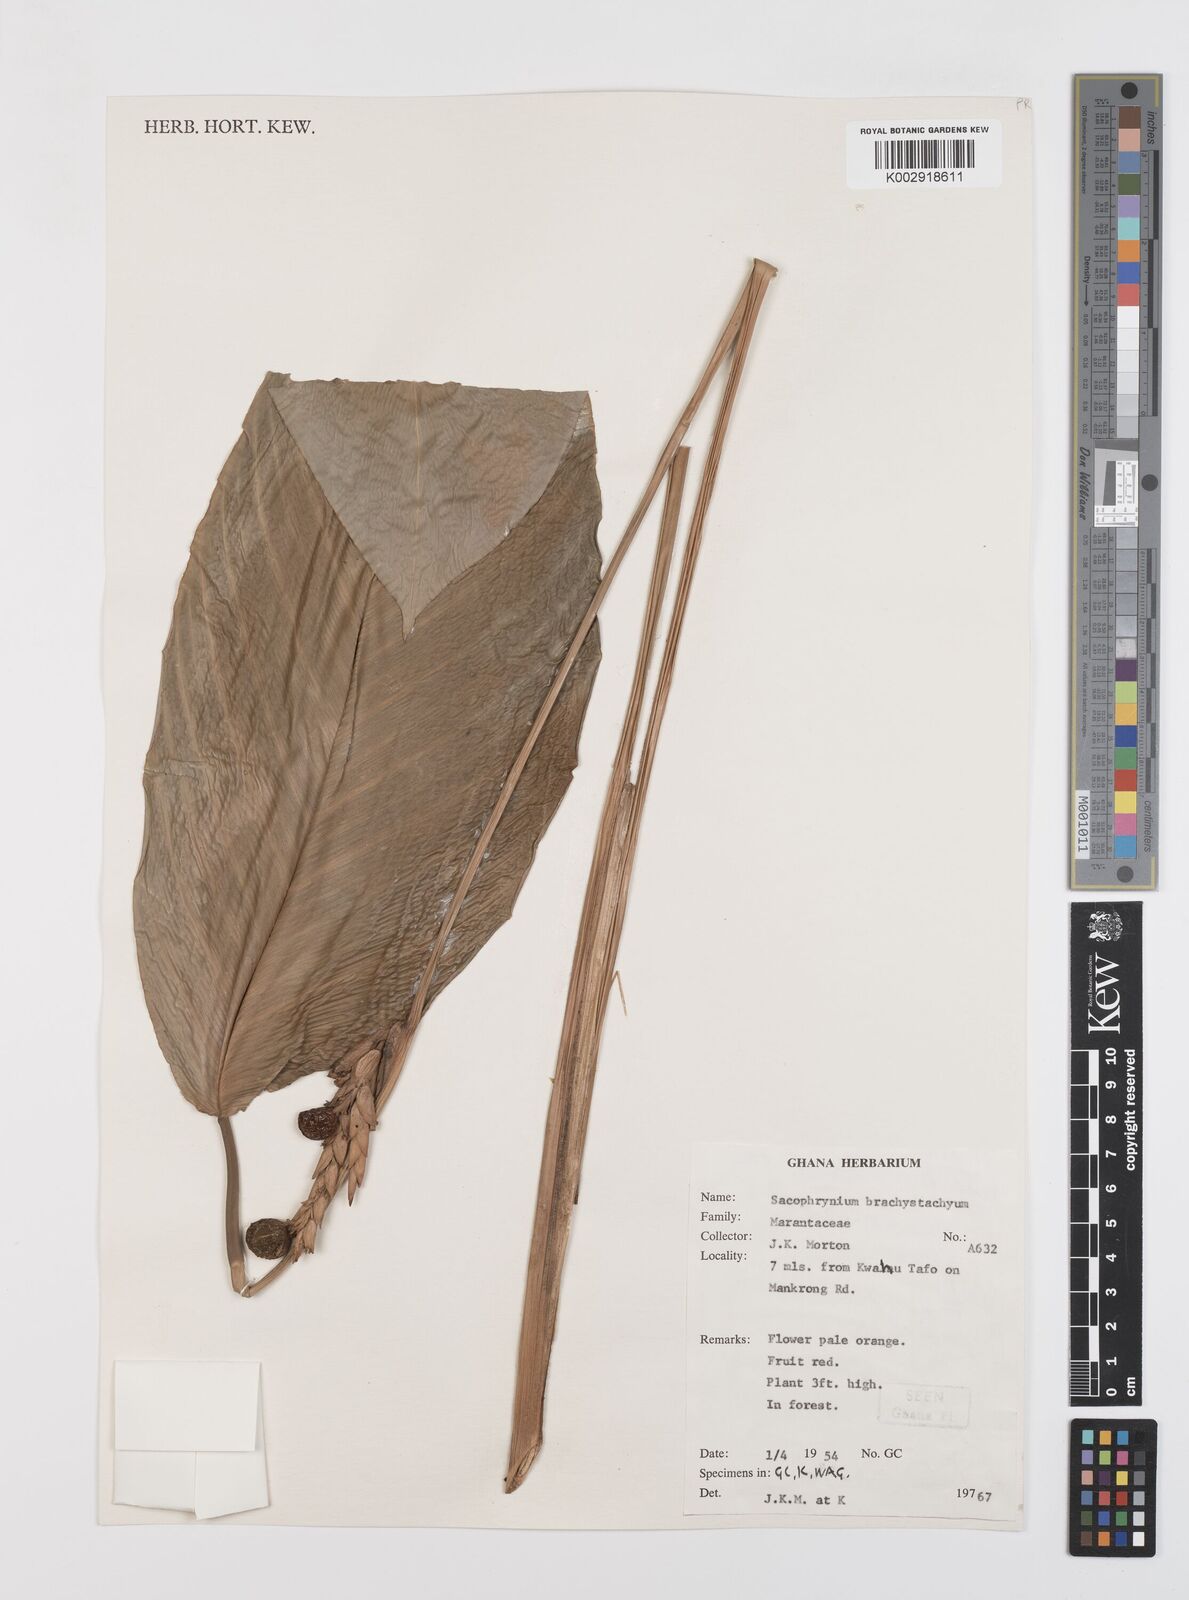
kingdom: Plantae
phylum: Tracheophyta
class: Liliopsida
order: Zingiberales
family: Marantaceae
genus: Sarcophrynium
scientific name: Sarcophrynium brachystachyum
